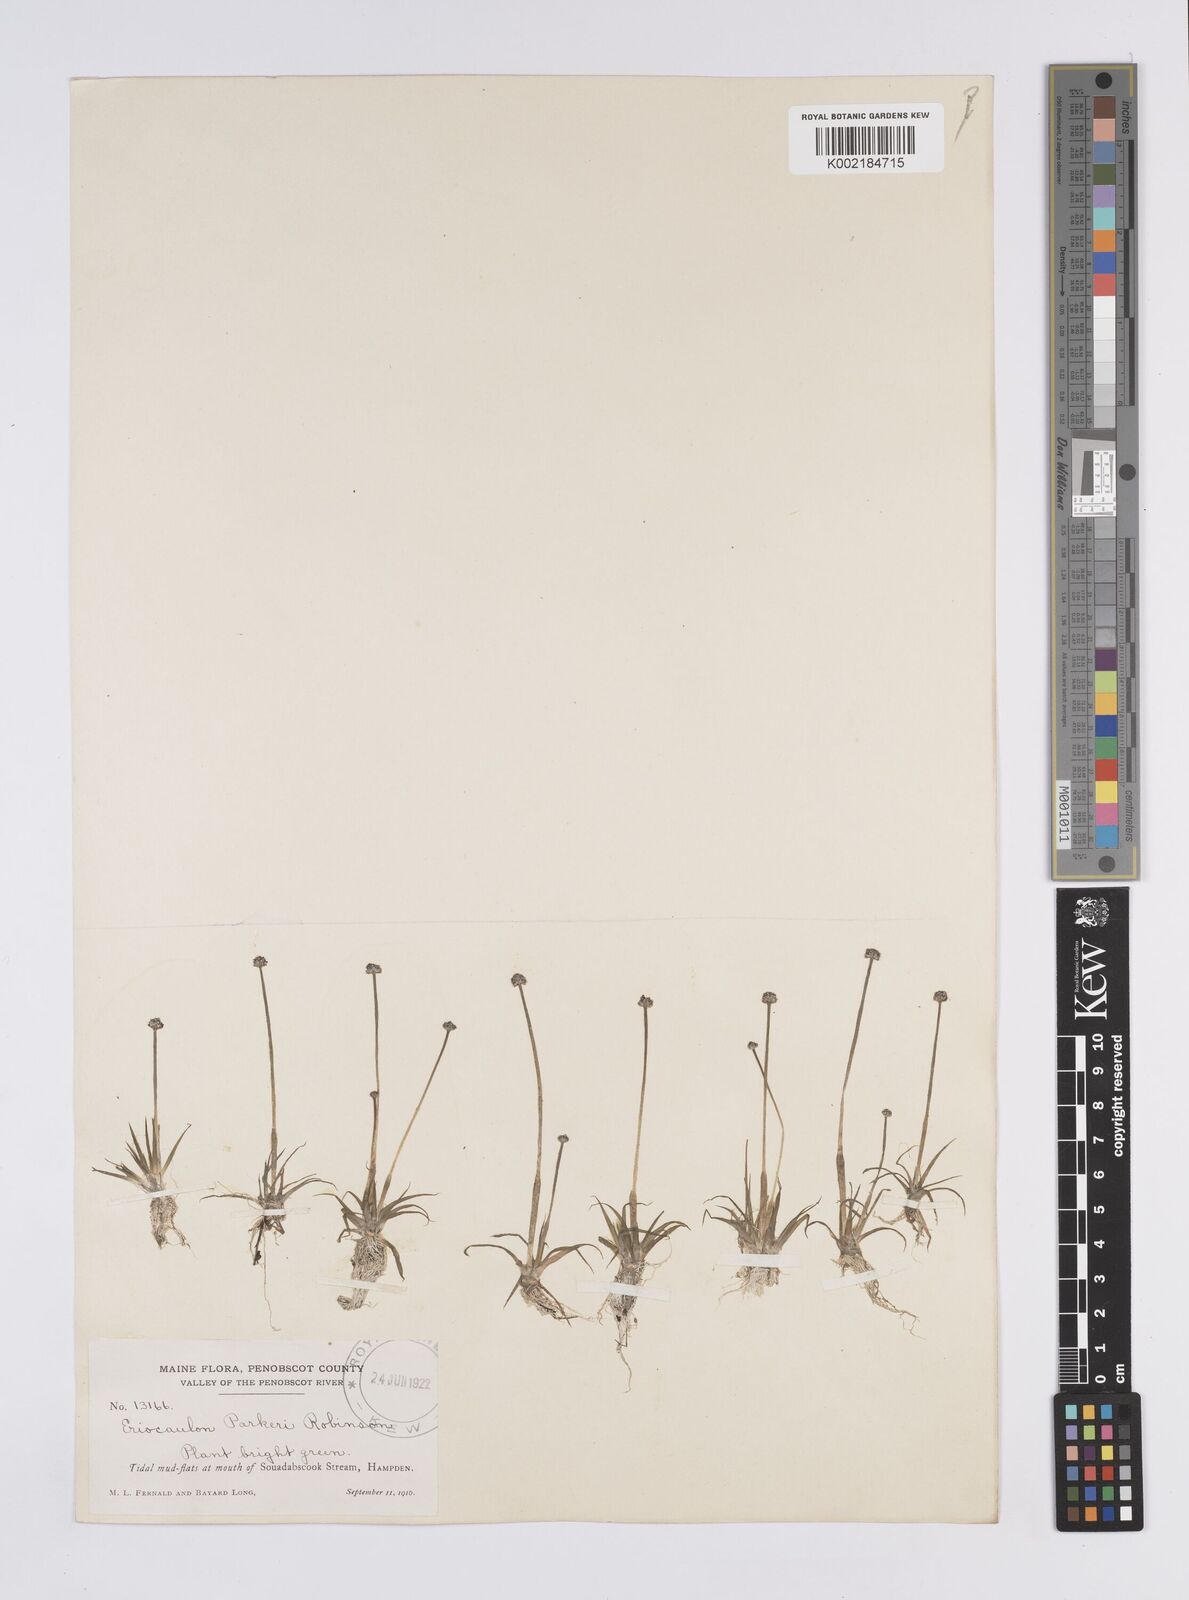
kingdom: Plantae
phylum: Tracheophyta
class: Liliopsida
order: Poales
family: Eriocaulaceae
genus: Eriocaulon
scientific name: Eriocaulon parkeri
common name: Parker's pipewort
